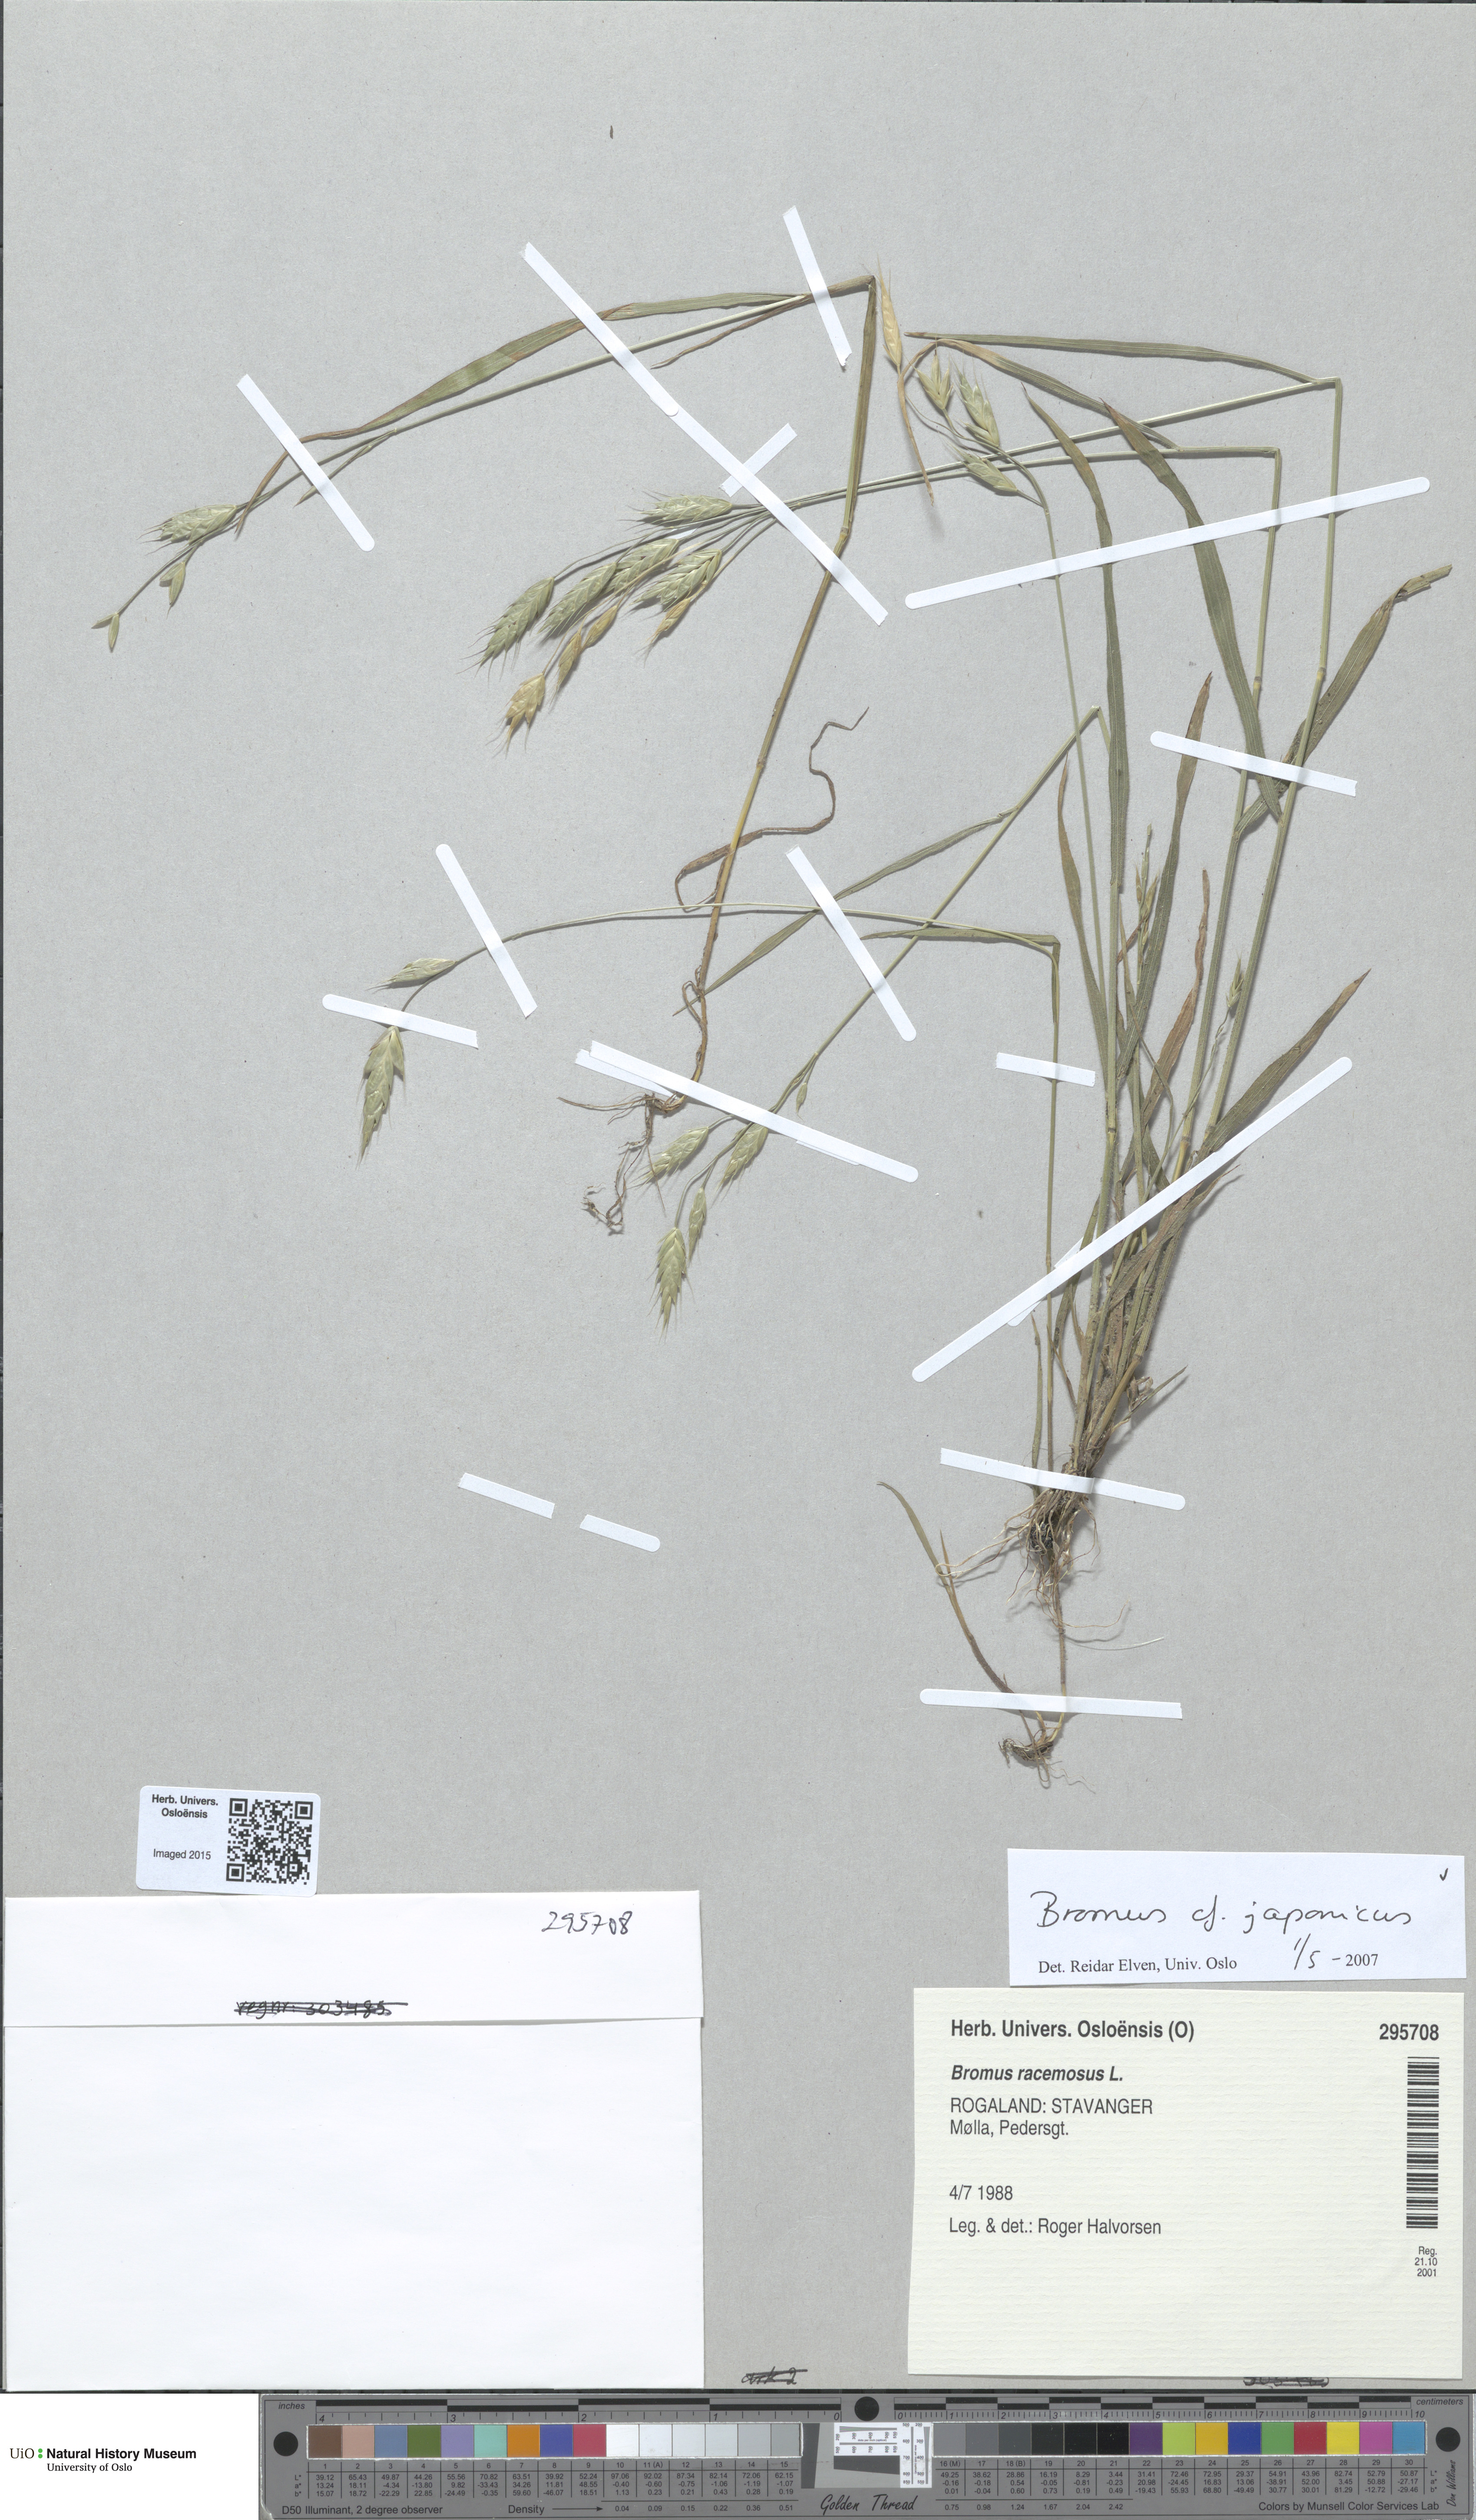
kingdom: Plantae
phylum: Tracheophyta
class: Liliopsida
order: Poales
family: Poaceae
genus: Bromus
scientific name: Bromus japonicus
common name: Japanese brome
